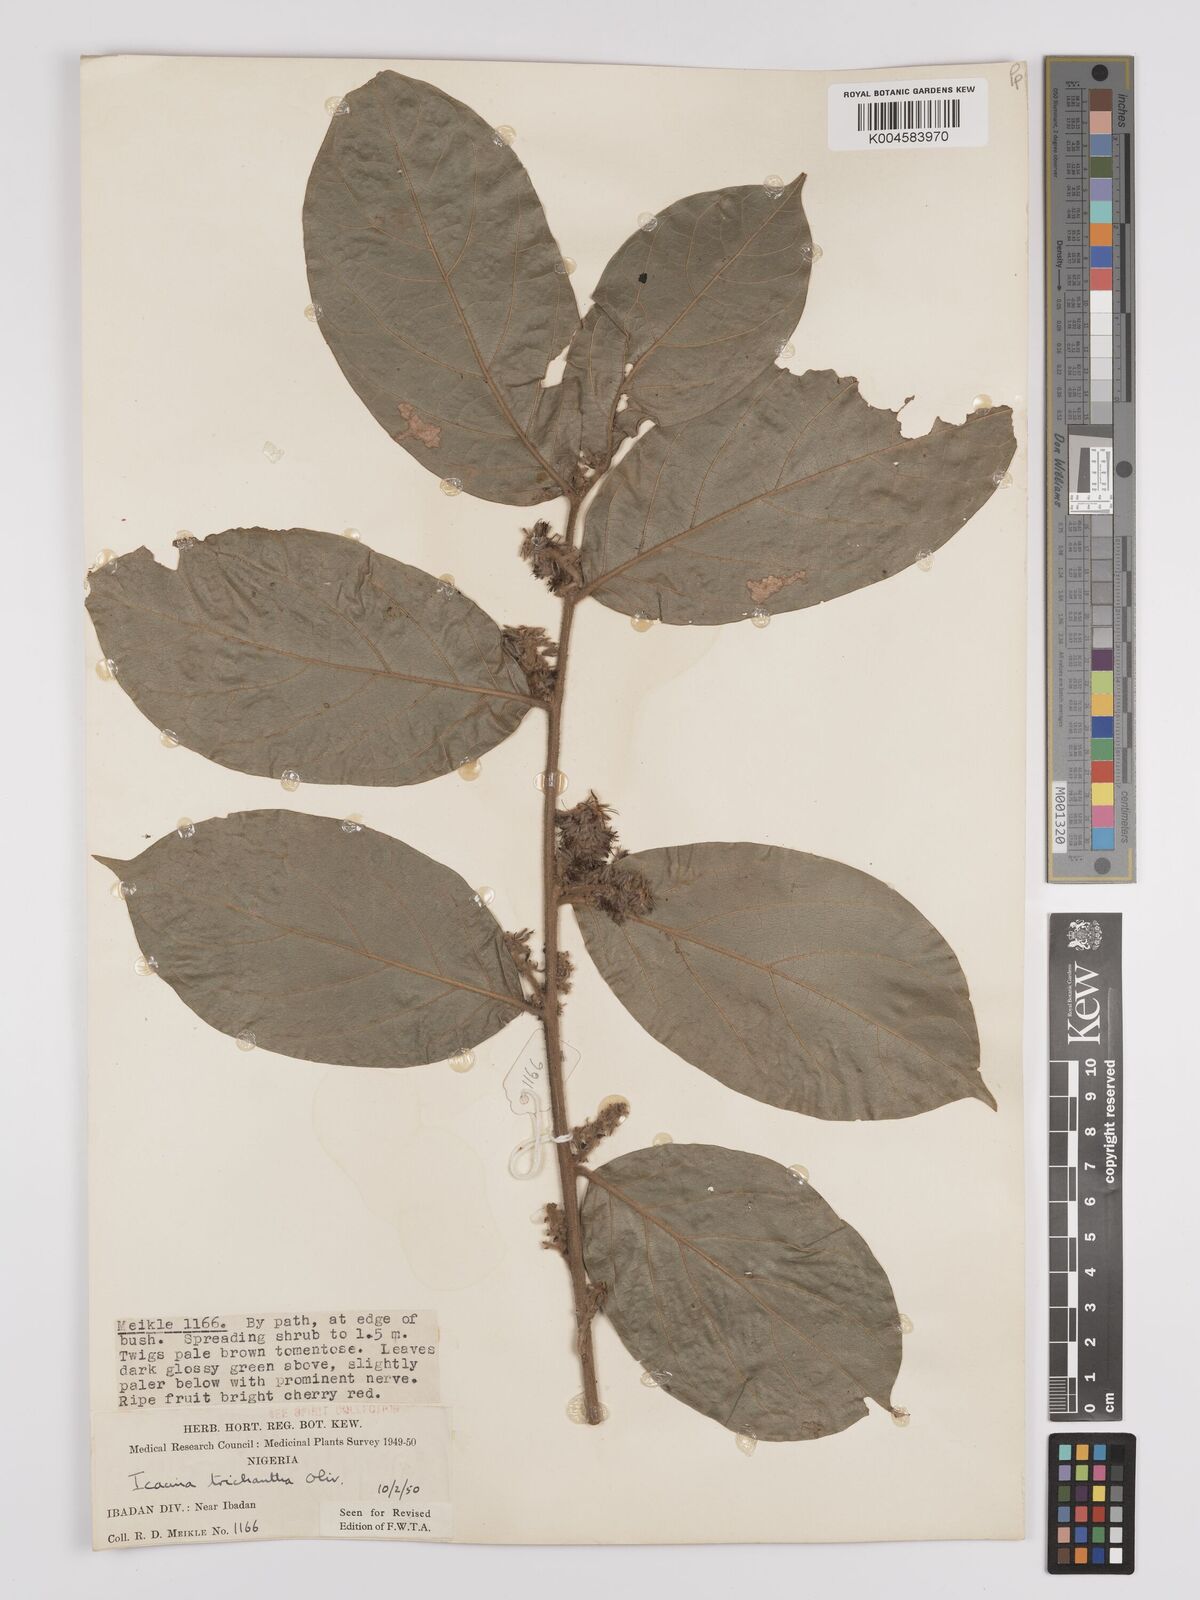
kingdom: Plantae
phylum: Tracheophyta
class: Magnoliopsida
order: Icacinales
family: Icacinaceae
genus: Icacina
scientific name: Icacina trichantha
